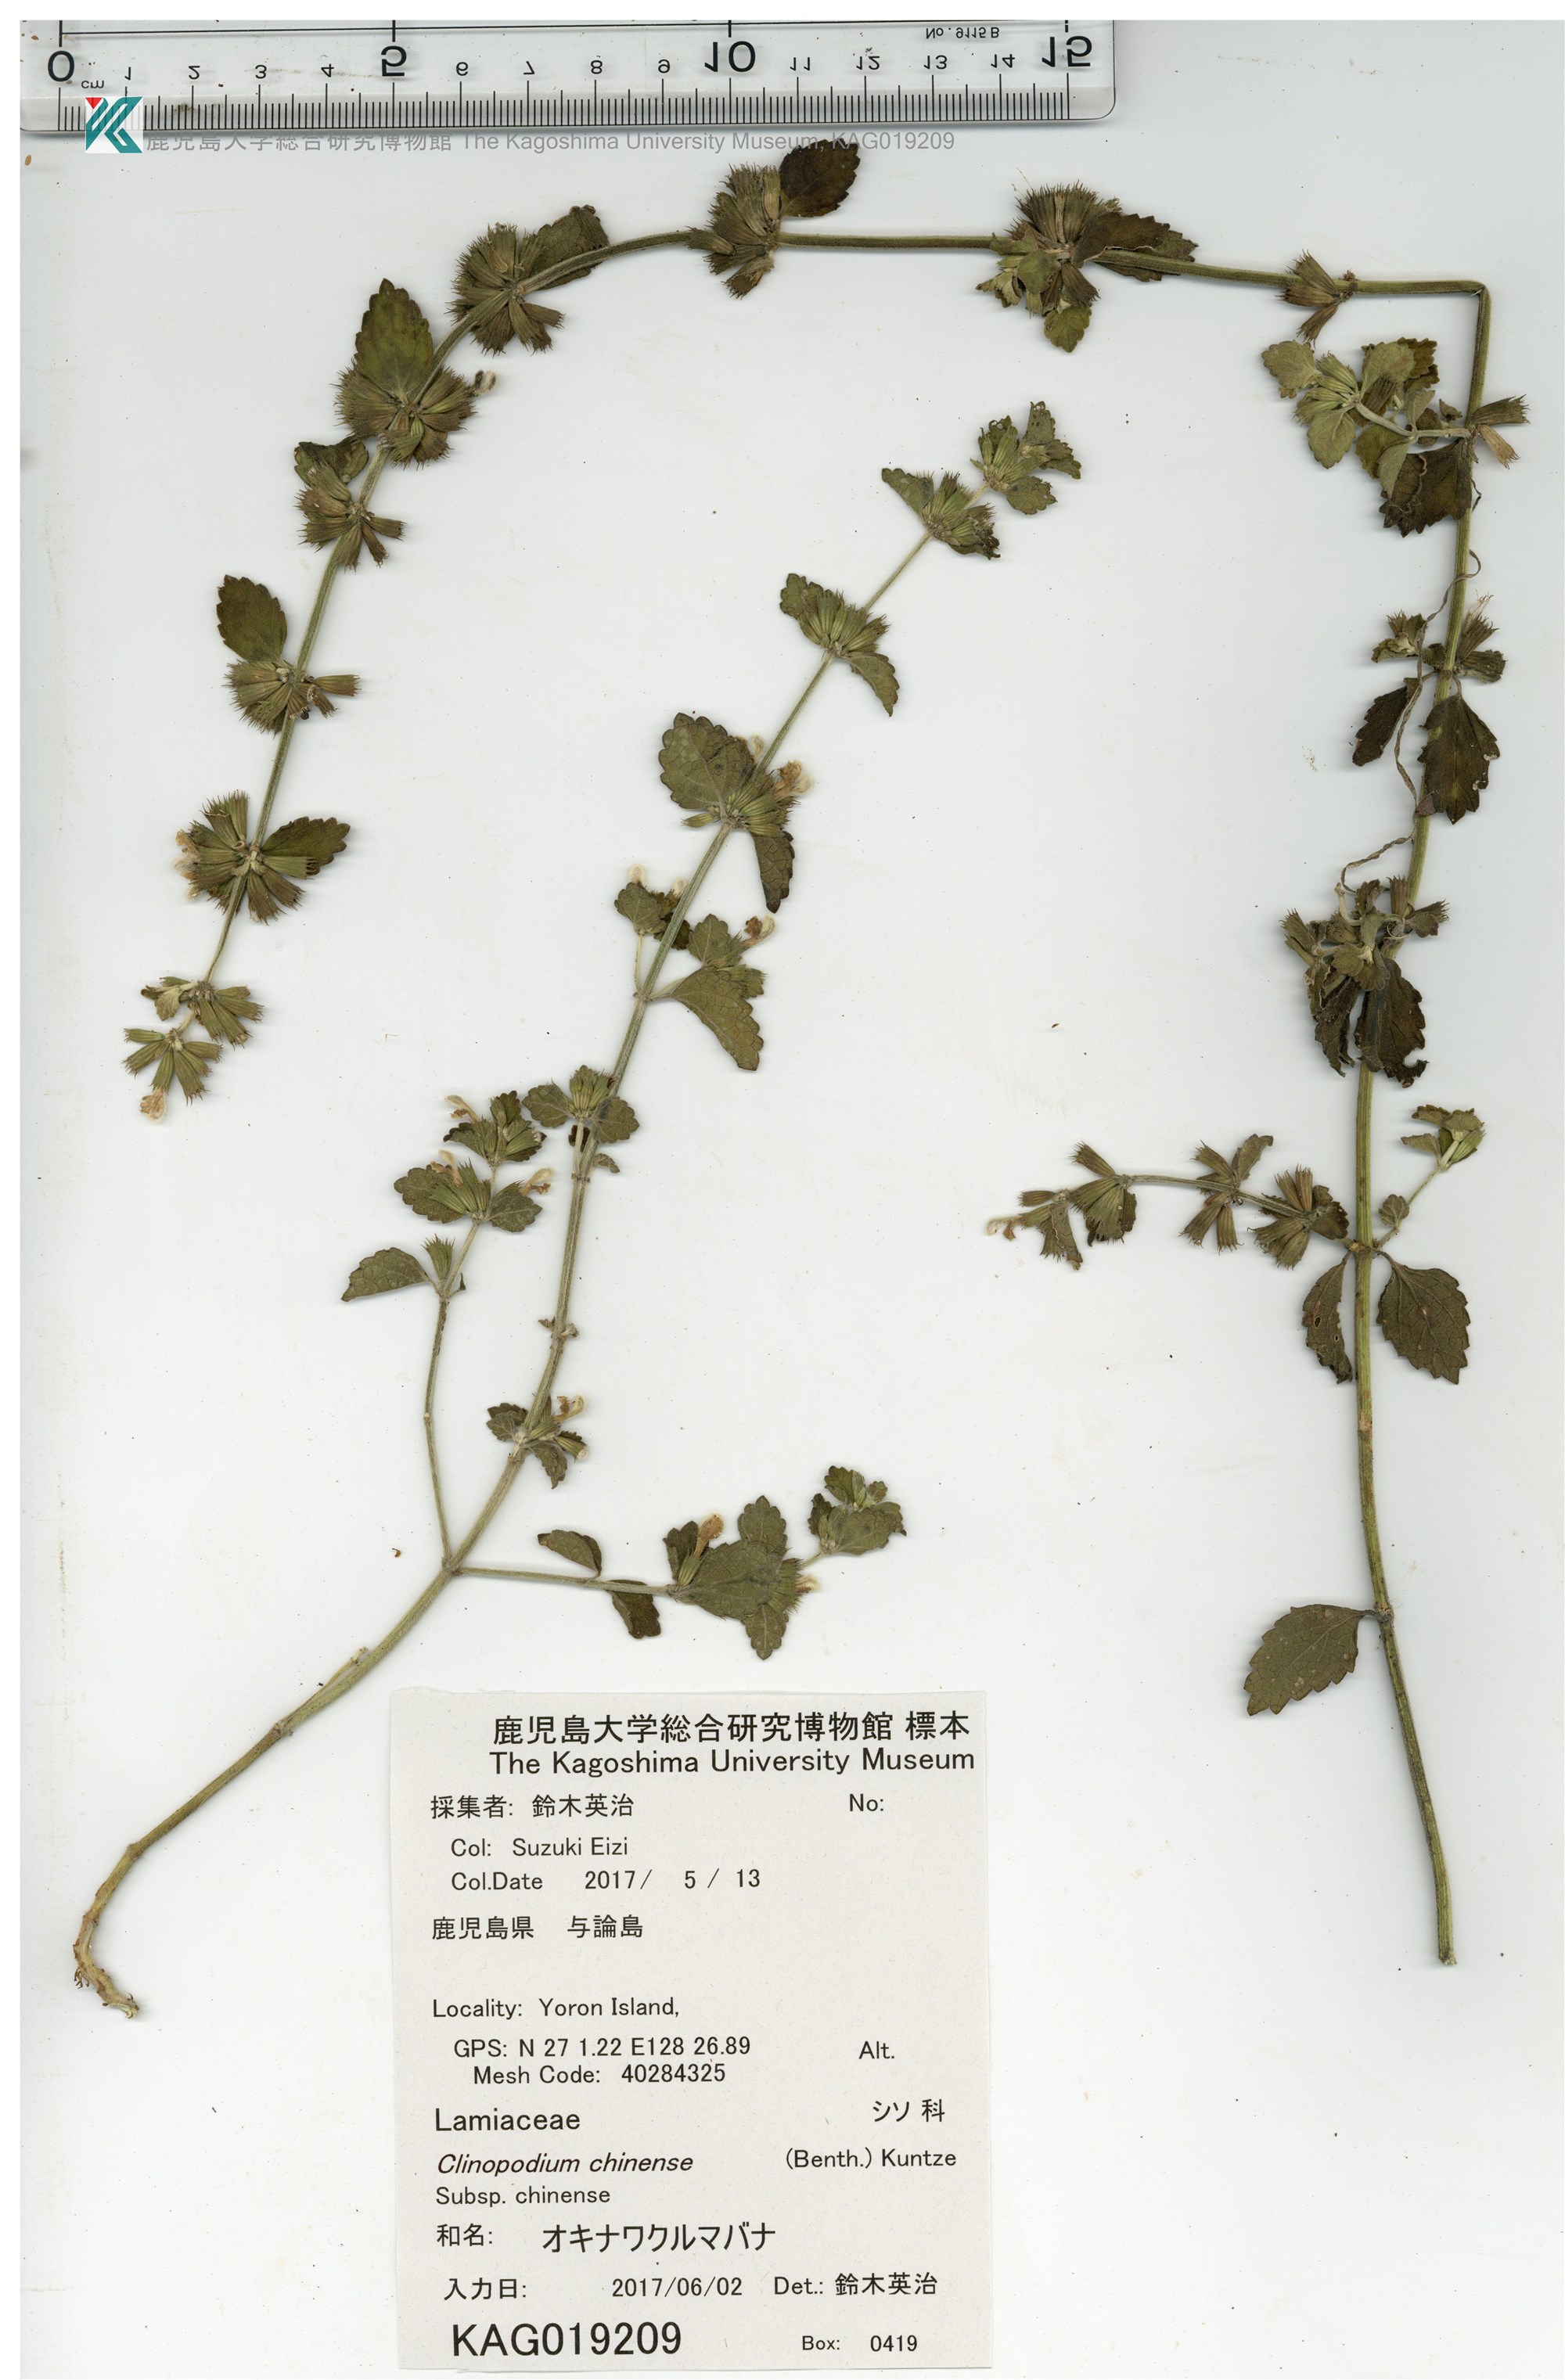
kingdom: Plantae
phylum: Tracheophyta
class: Magnoliopsida
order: Lamiales
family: Lamiaceae
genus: Leucas
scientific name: Leucas chinensis
